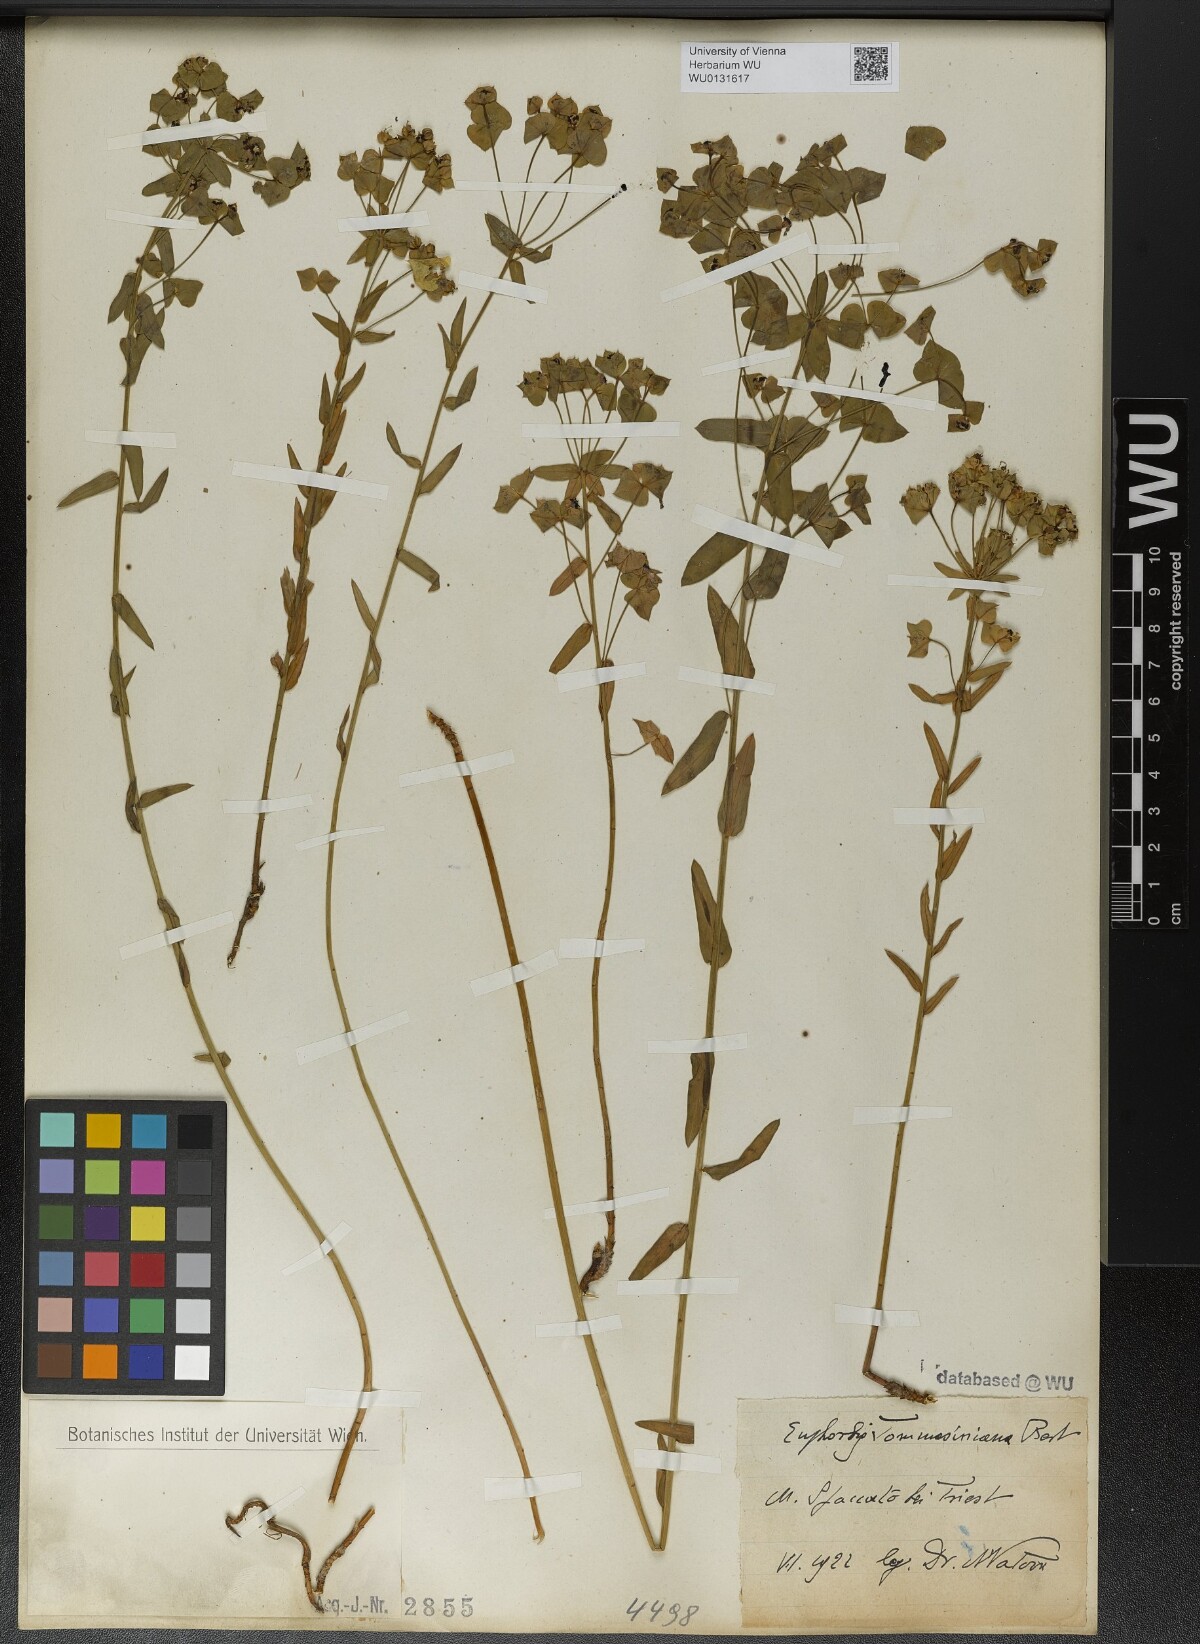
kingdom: Plantae
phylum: Tracheophyta
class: Magnoliopsida
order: Malpighiales
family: Euphorbiaceae
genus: Euphorbia
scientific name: Euphorbia tommasiniana
